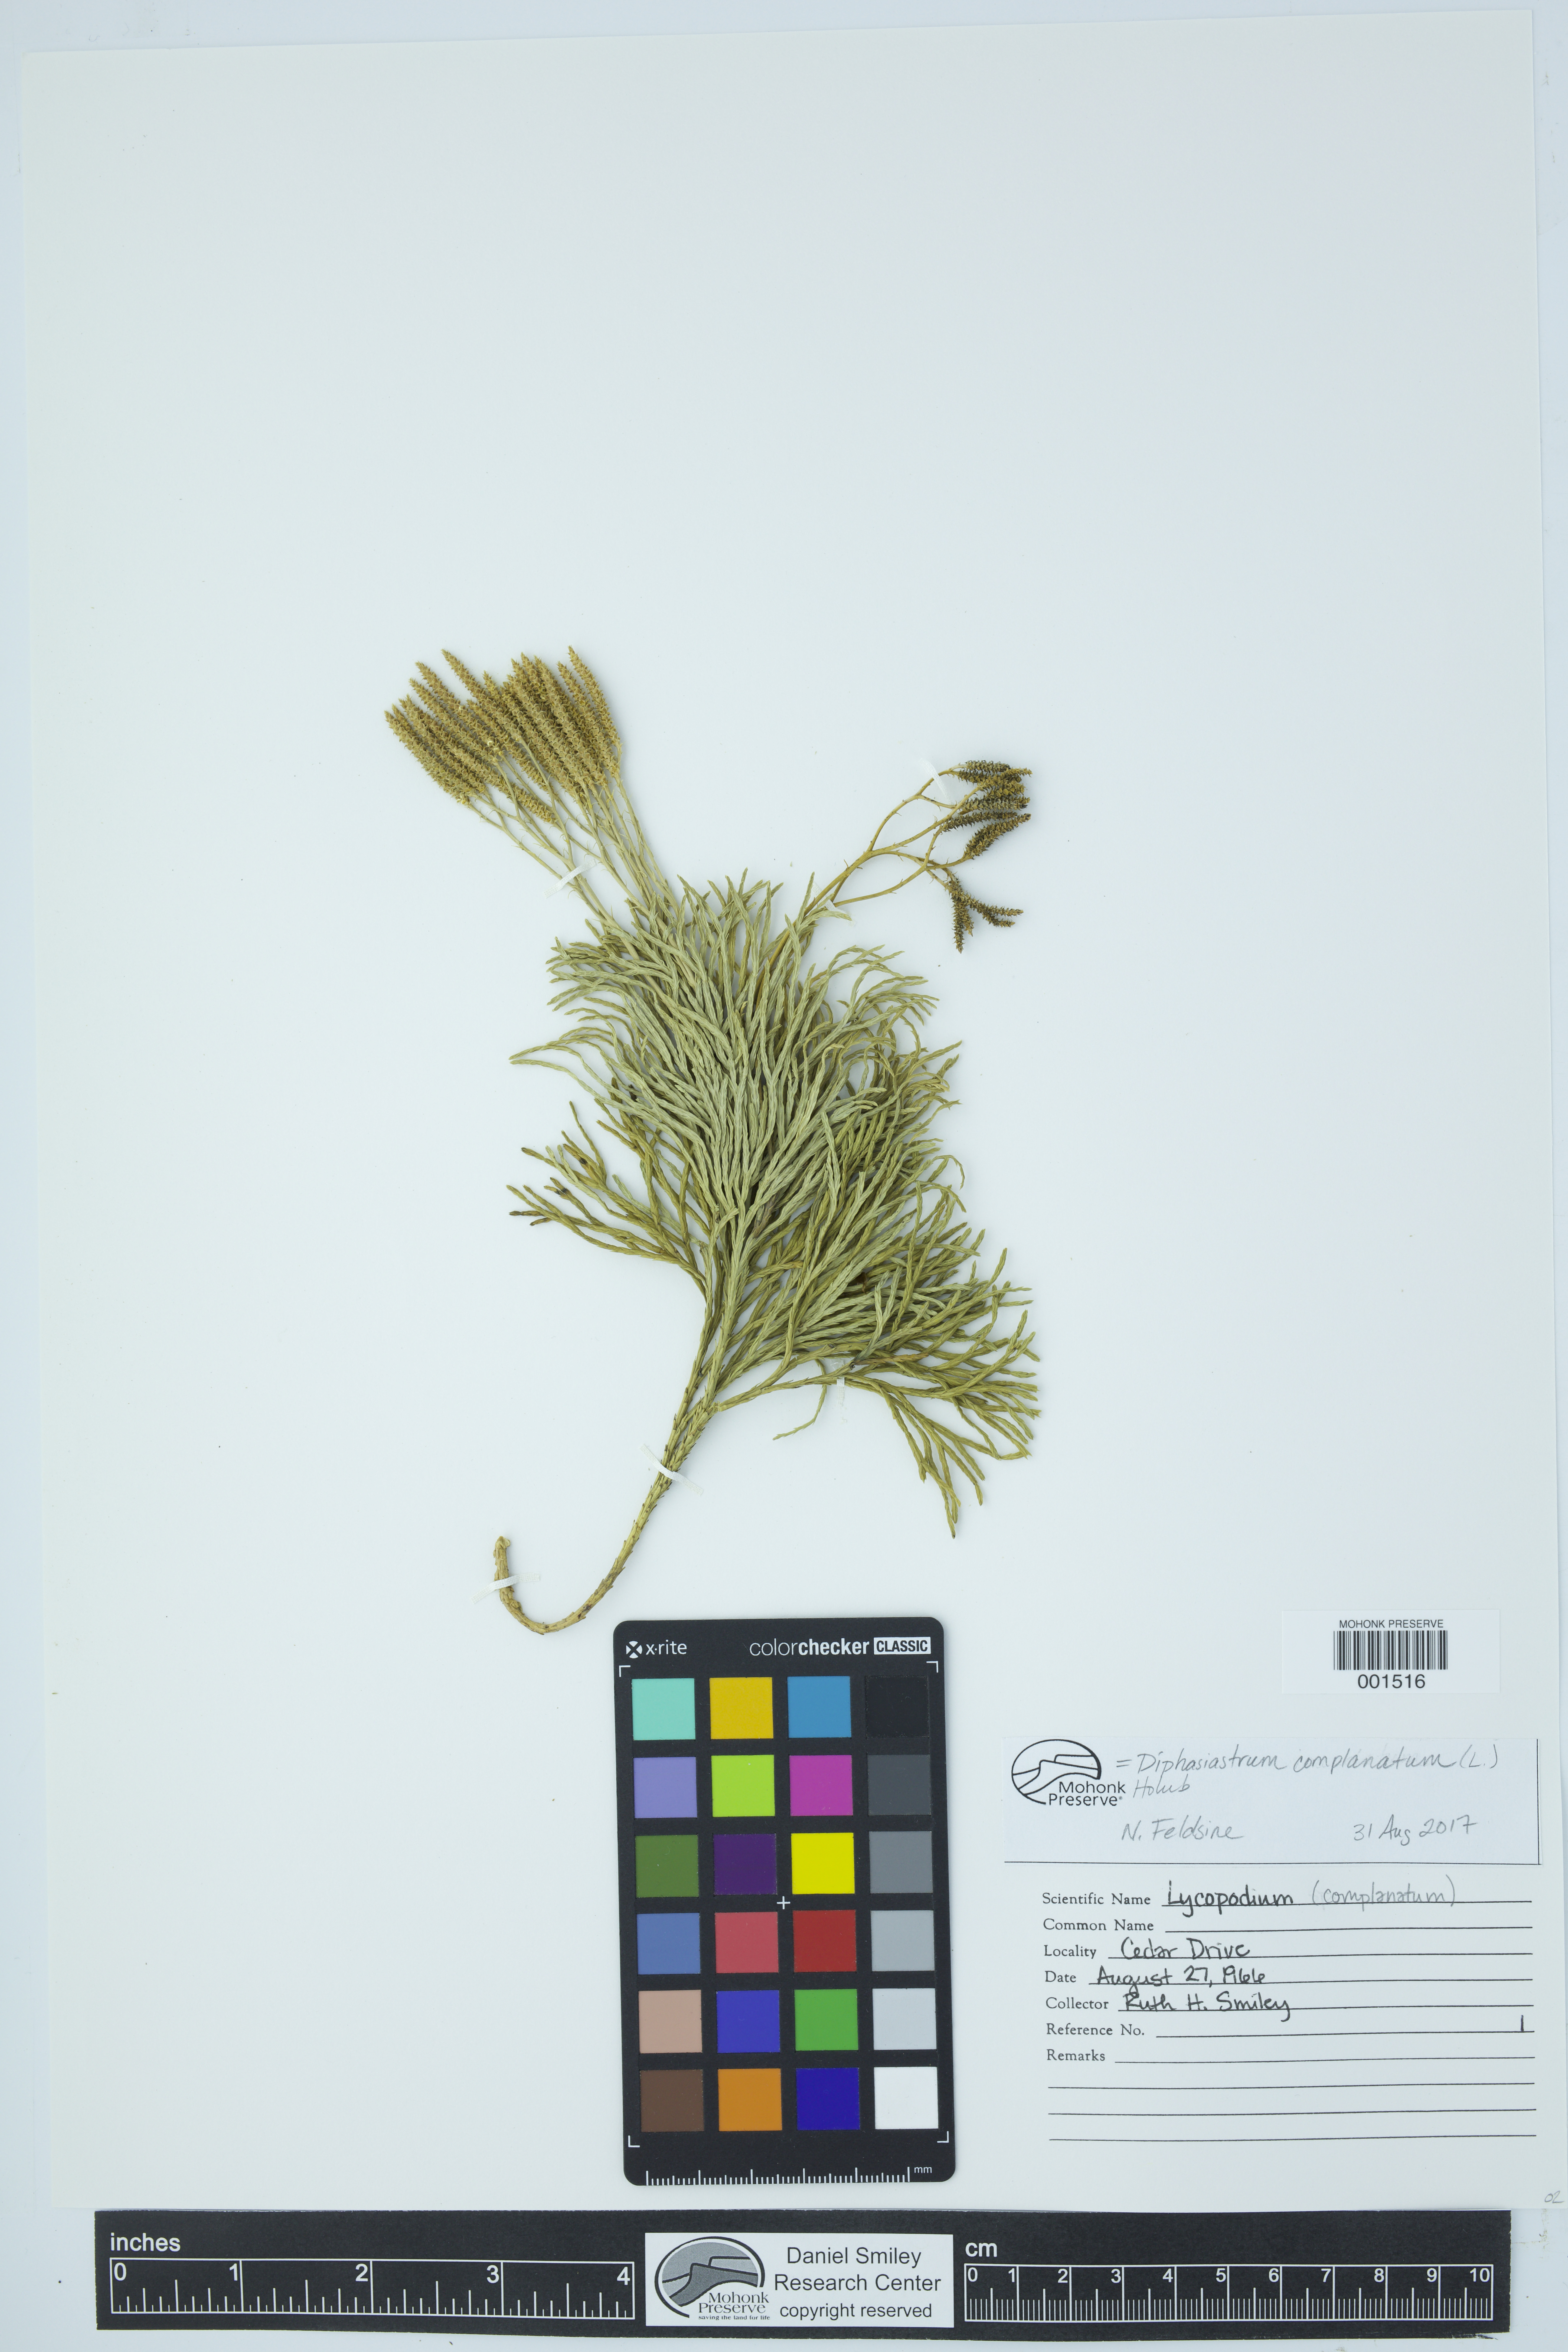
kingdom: Plantae
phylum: Tracheophyta
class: Lycopodiopsida
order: Lycopodiales
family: Lycopodiaceae
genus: Diphasiastrum
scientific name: Diphasiastrum complanatum
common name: Northern running-pine
